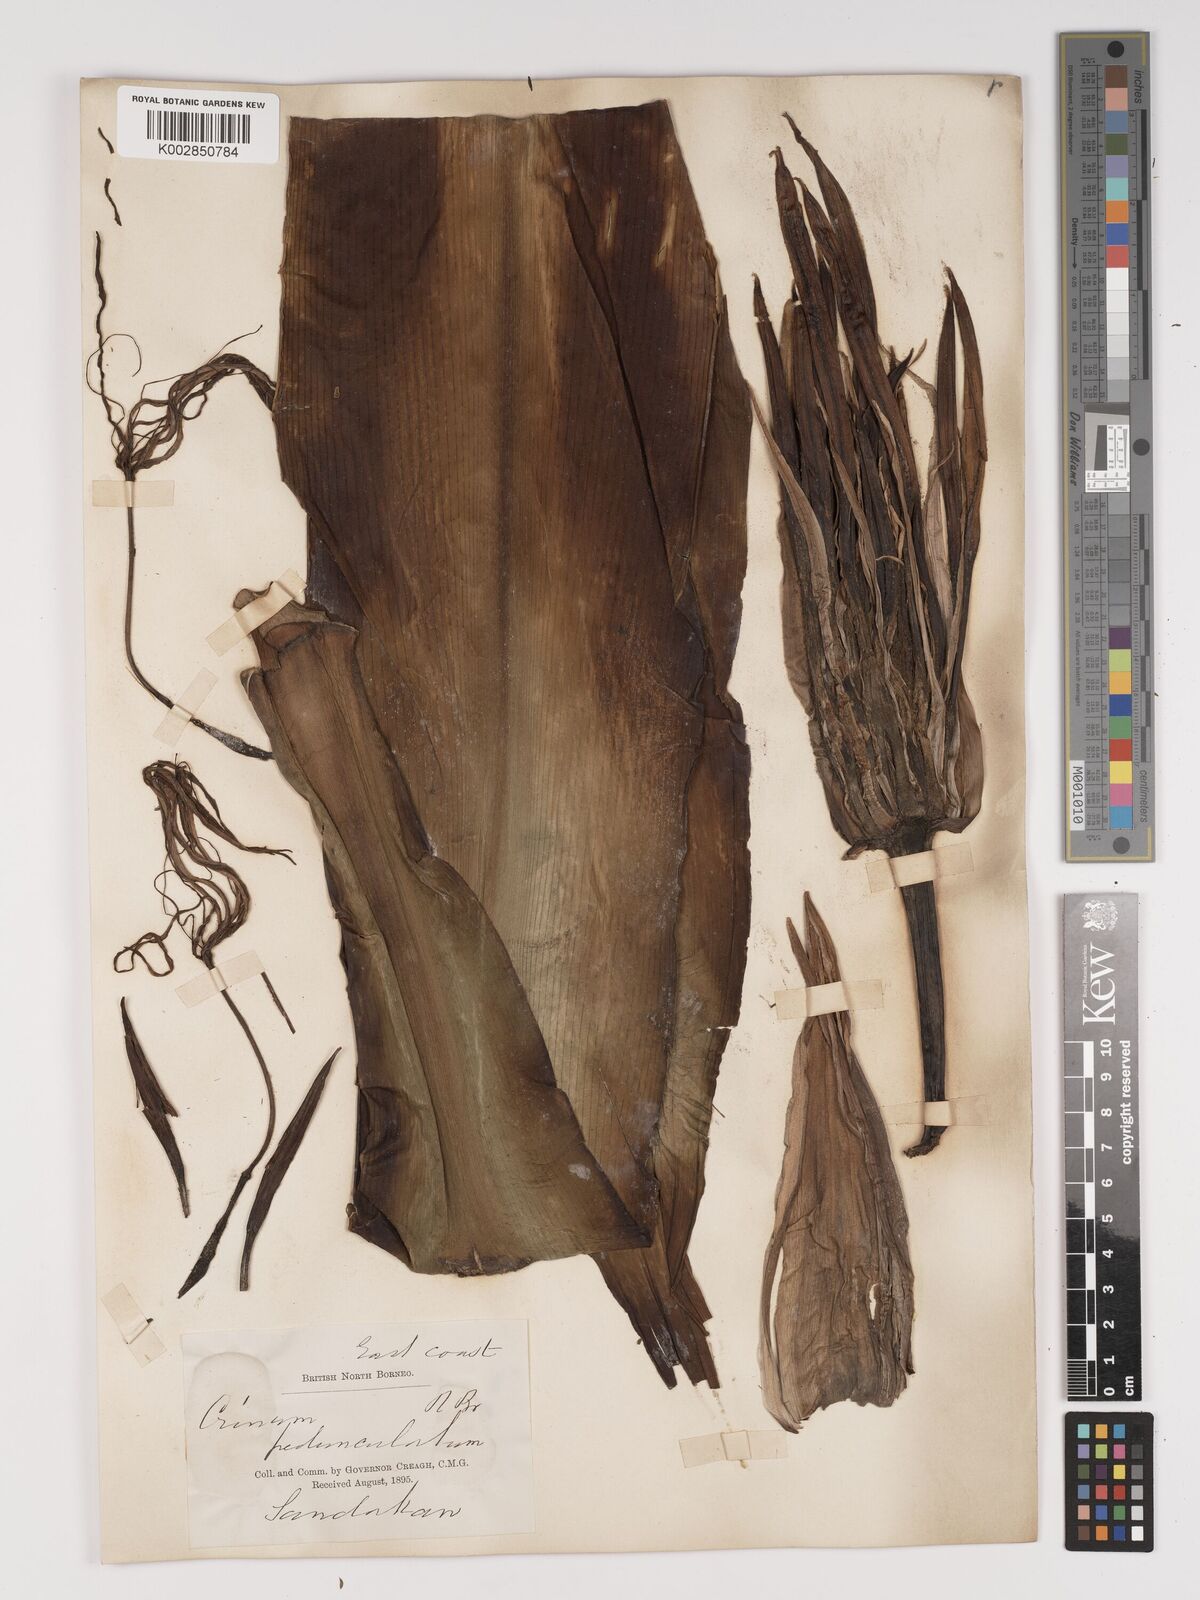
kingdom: Plantae
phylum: Tracheophyta
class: Liliopsida
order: Asparagales
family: Amaryllidaceae
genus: Crinum
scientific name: Crinum asiaticum
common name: Poisonbulb
